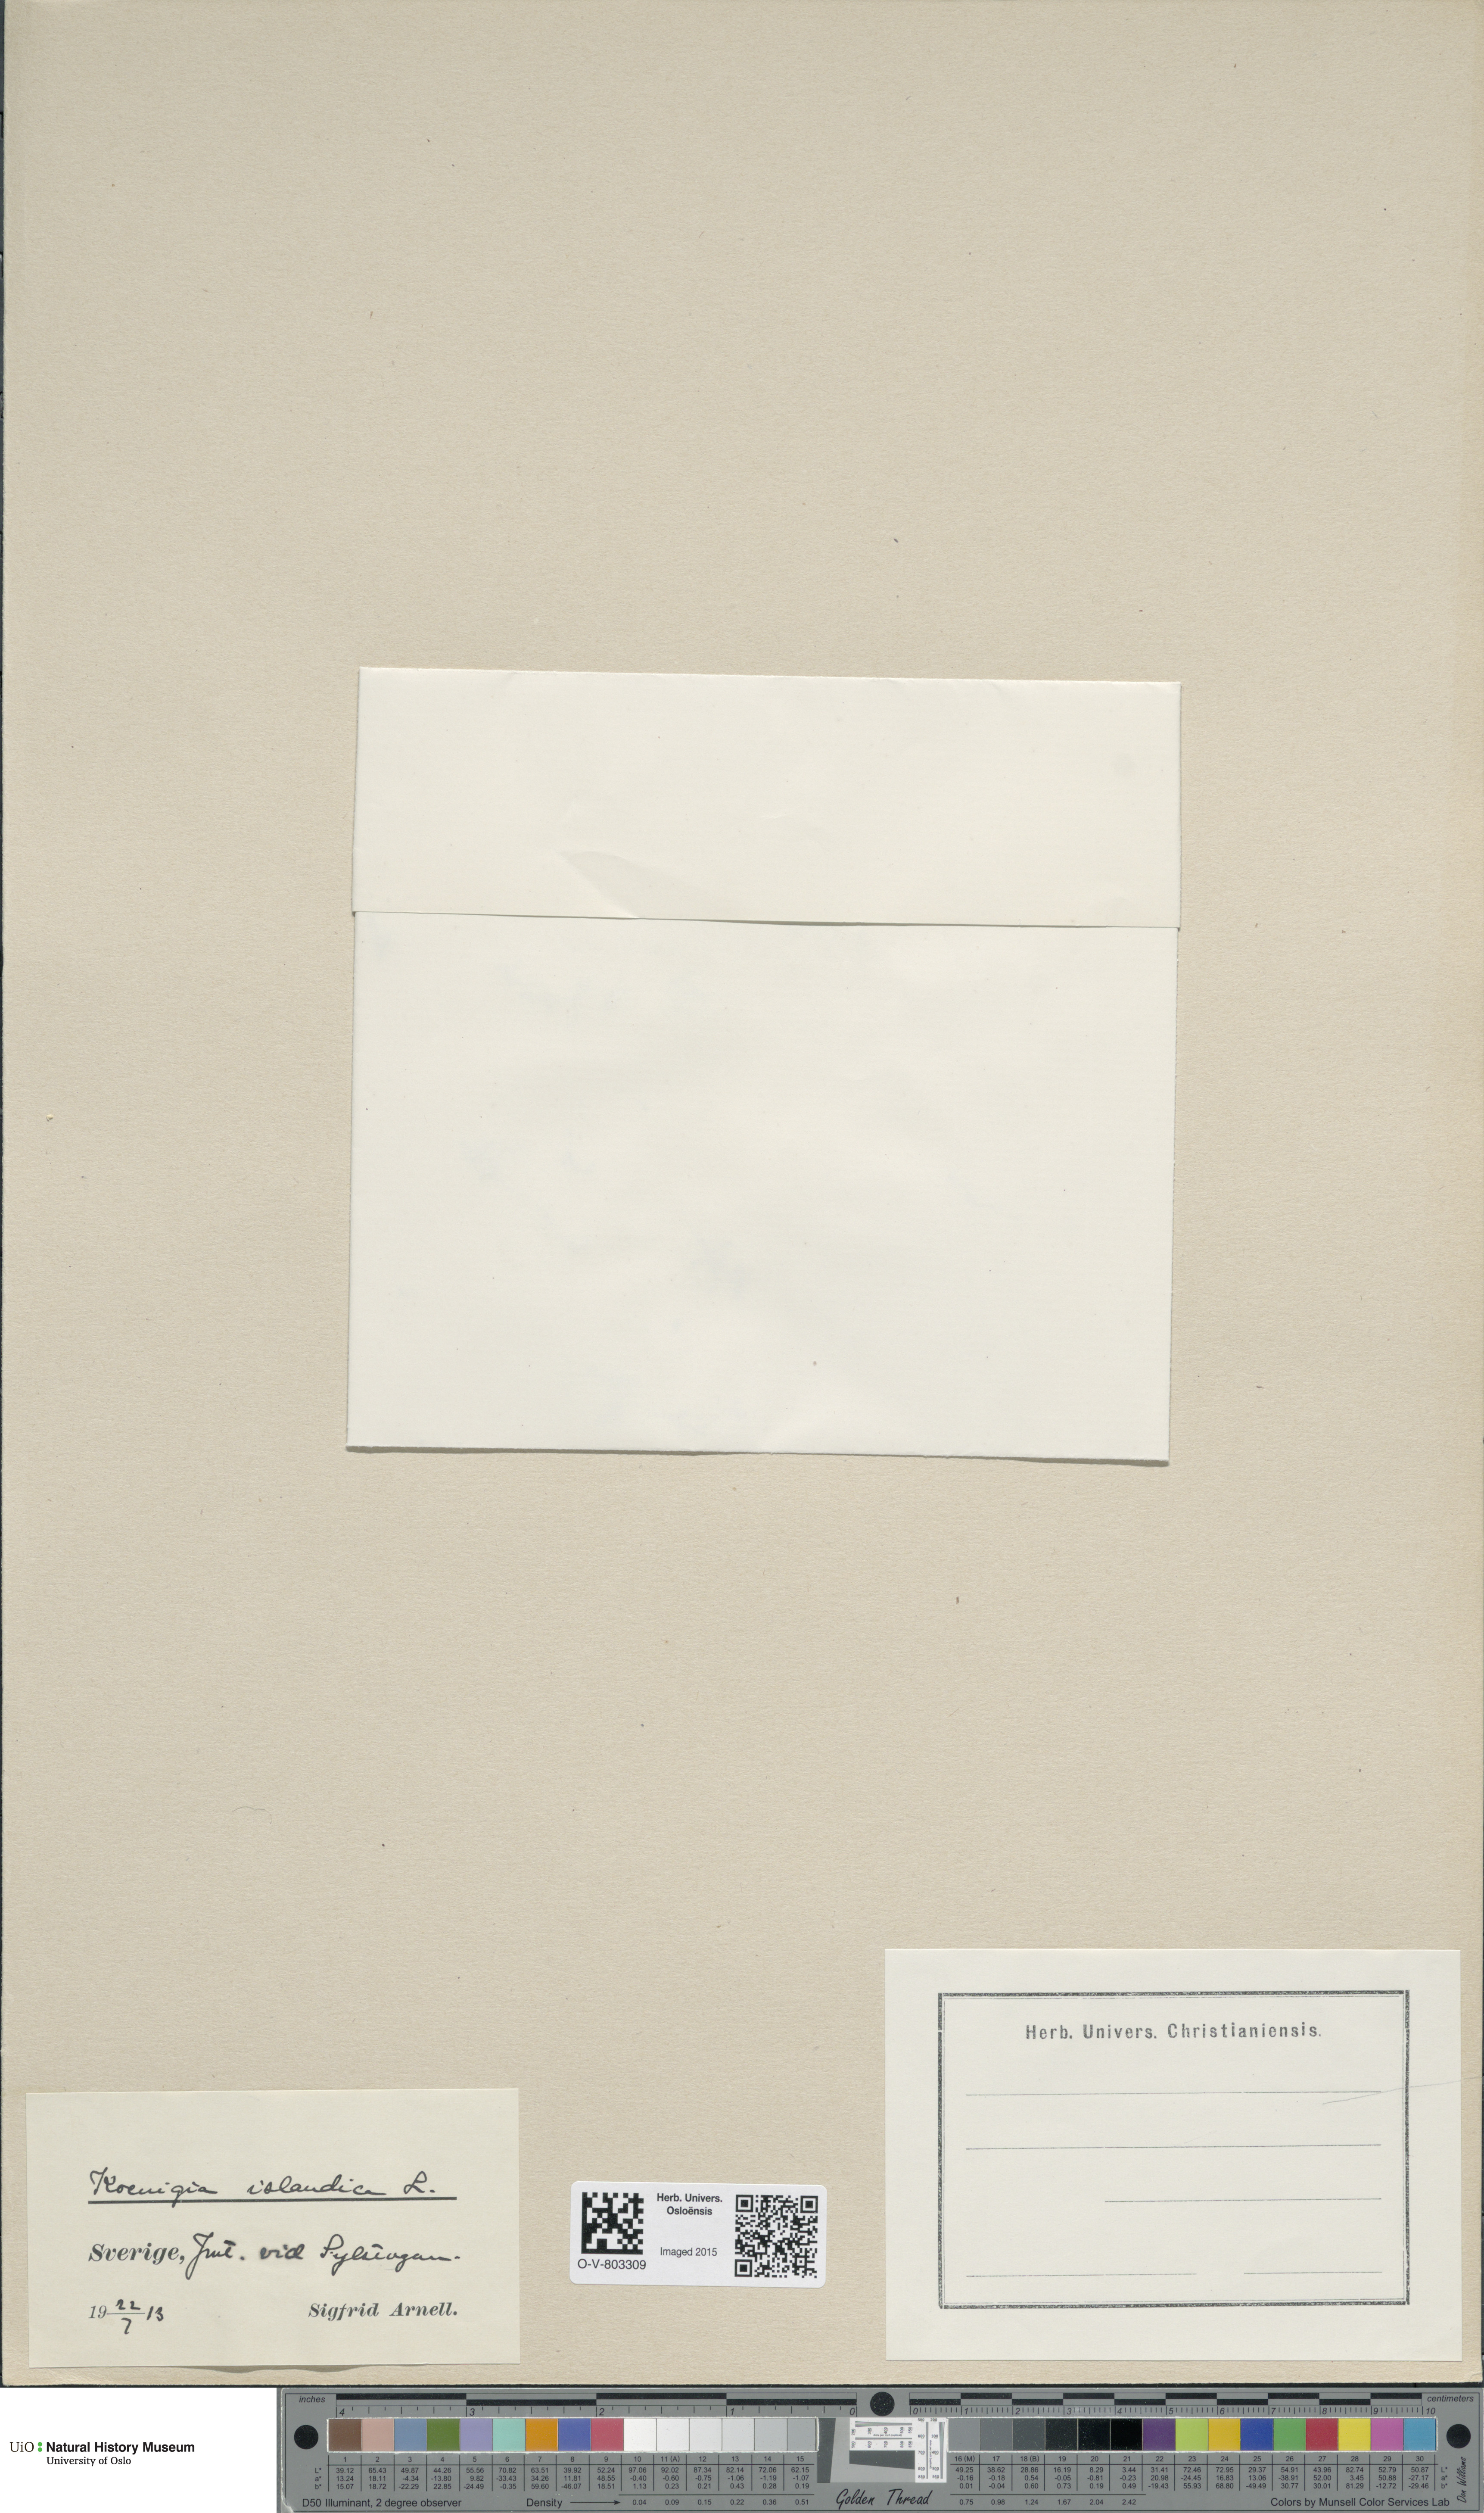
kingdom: Plantae
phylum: Tracheophyta
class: Magnoliopsida
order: Caryophyllales
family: Polygonaceae
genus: Koenigia
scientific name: Koenigia islandica
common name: Iceland-purslane
